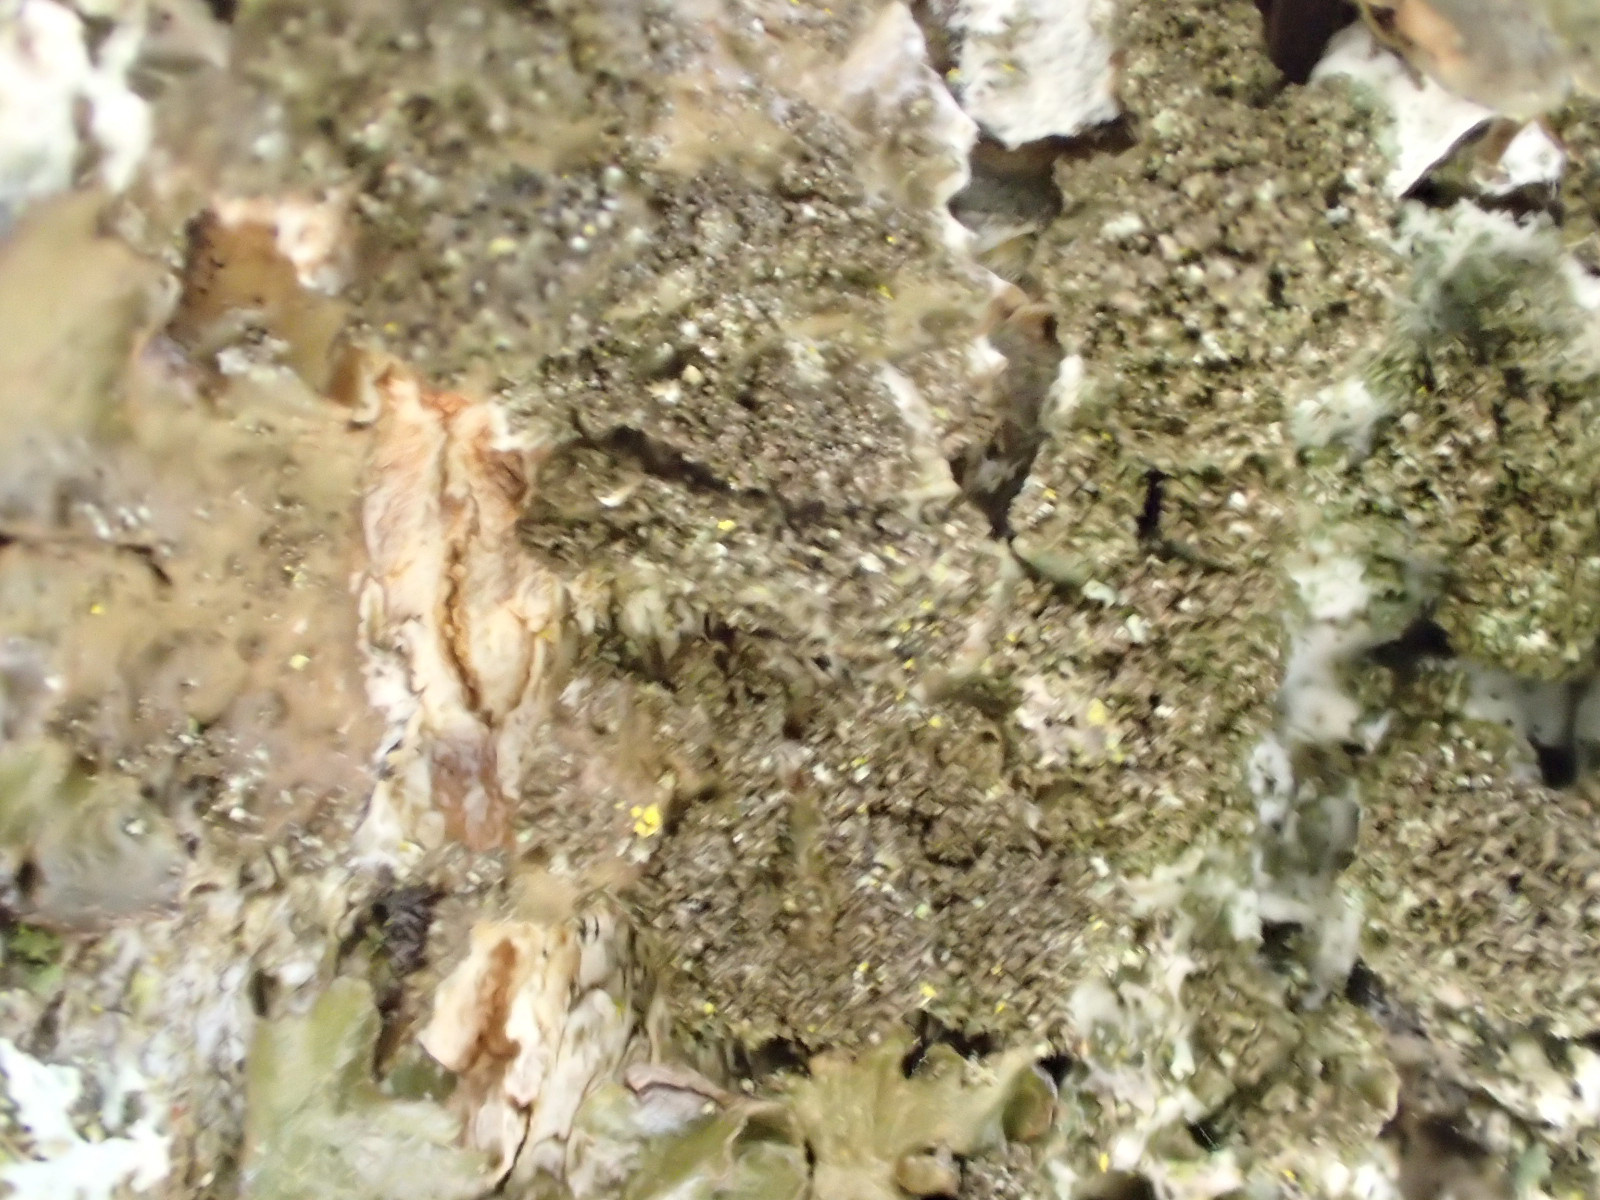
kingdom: Fungi
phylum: Ascomycota
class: Lecanoromycetes
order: Lecanorales
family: Parmeliaceae
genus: Melanelixia
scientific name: Melanelixia subaurifera
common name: guldpudret skållav
